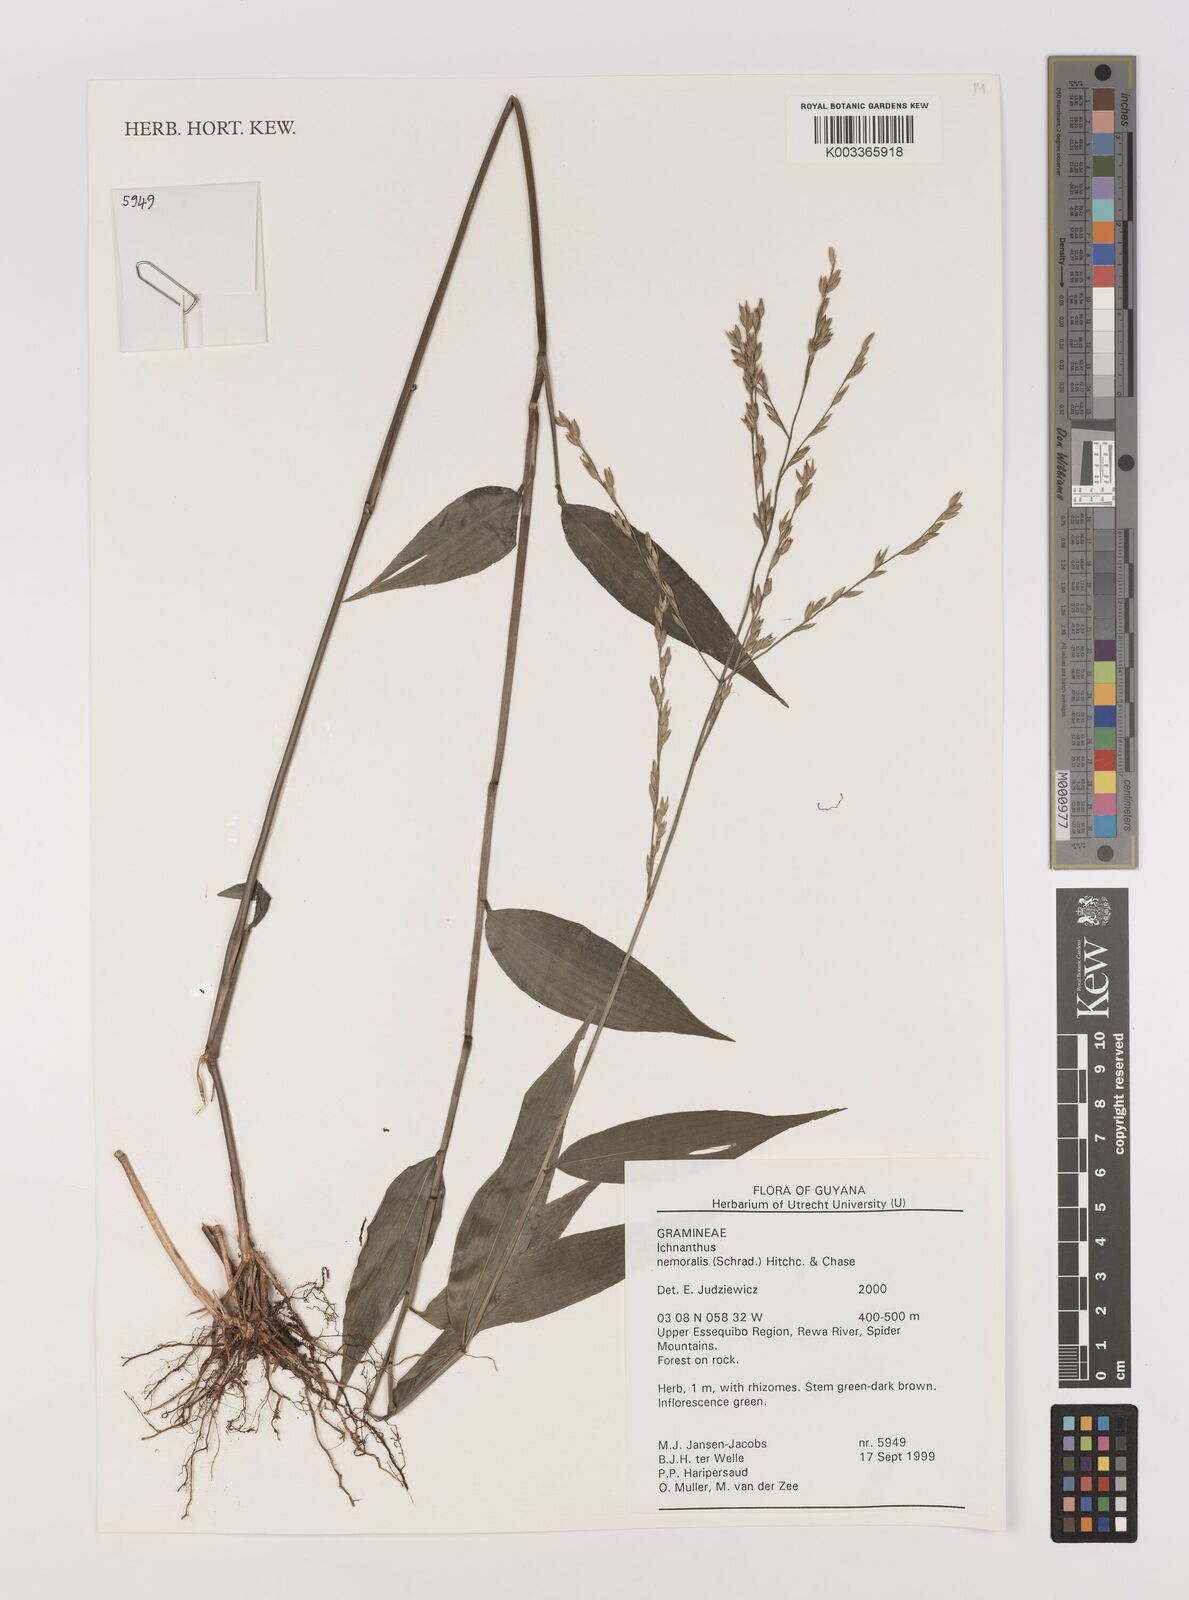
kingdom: Plantae
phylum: Tracheophyta
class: Liliopsida
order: Poales
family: Poaceae
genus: Ichnanthus
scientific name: Ichnanthus nemoralis
